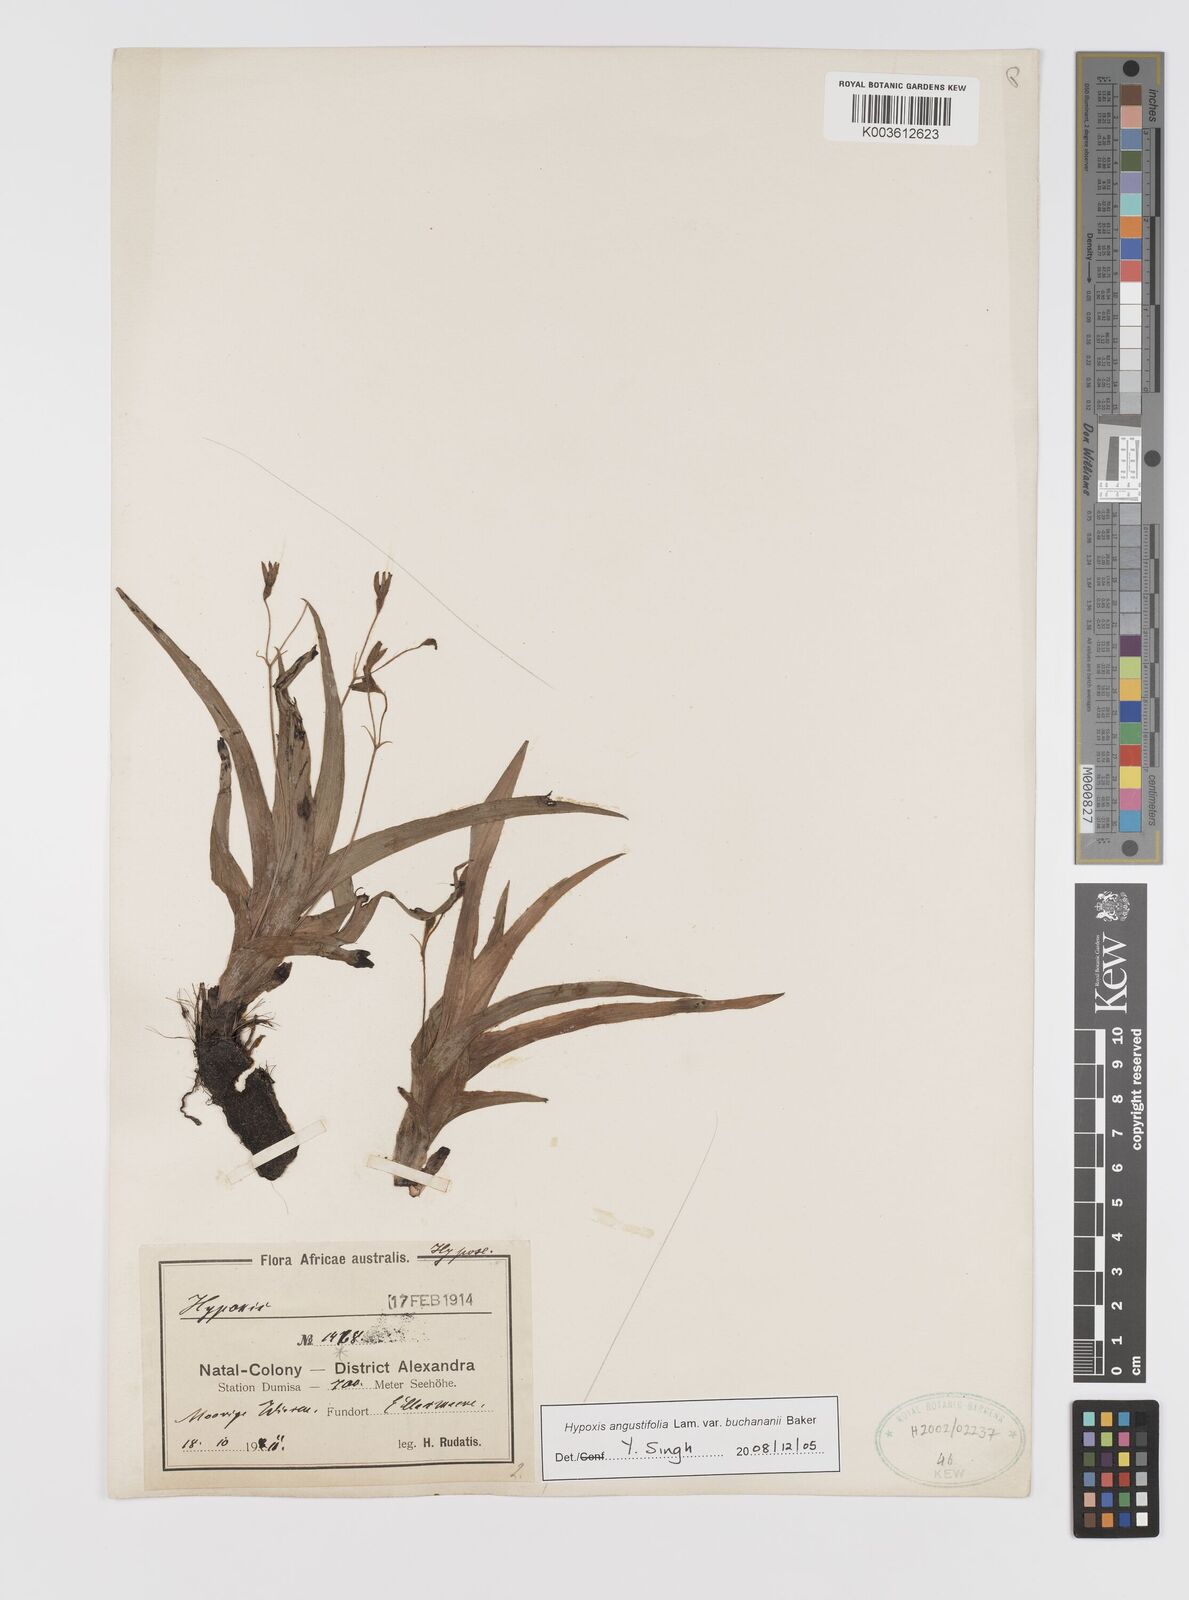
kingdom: Plantae
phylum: Tracheophyta
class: Liliopsida
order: Asparagales
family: Hypoxidaceae
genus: Hypoxis
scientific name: Hypoxis angustifolia
